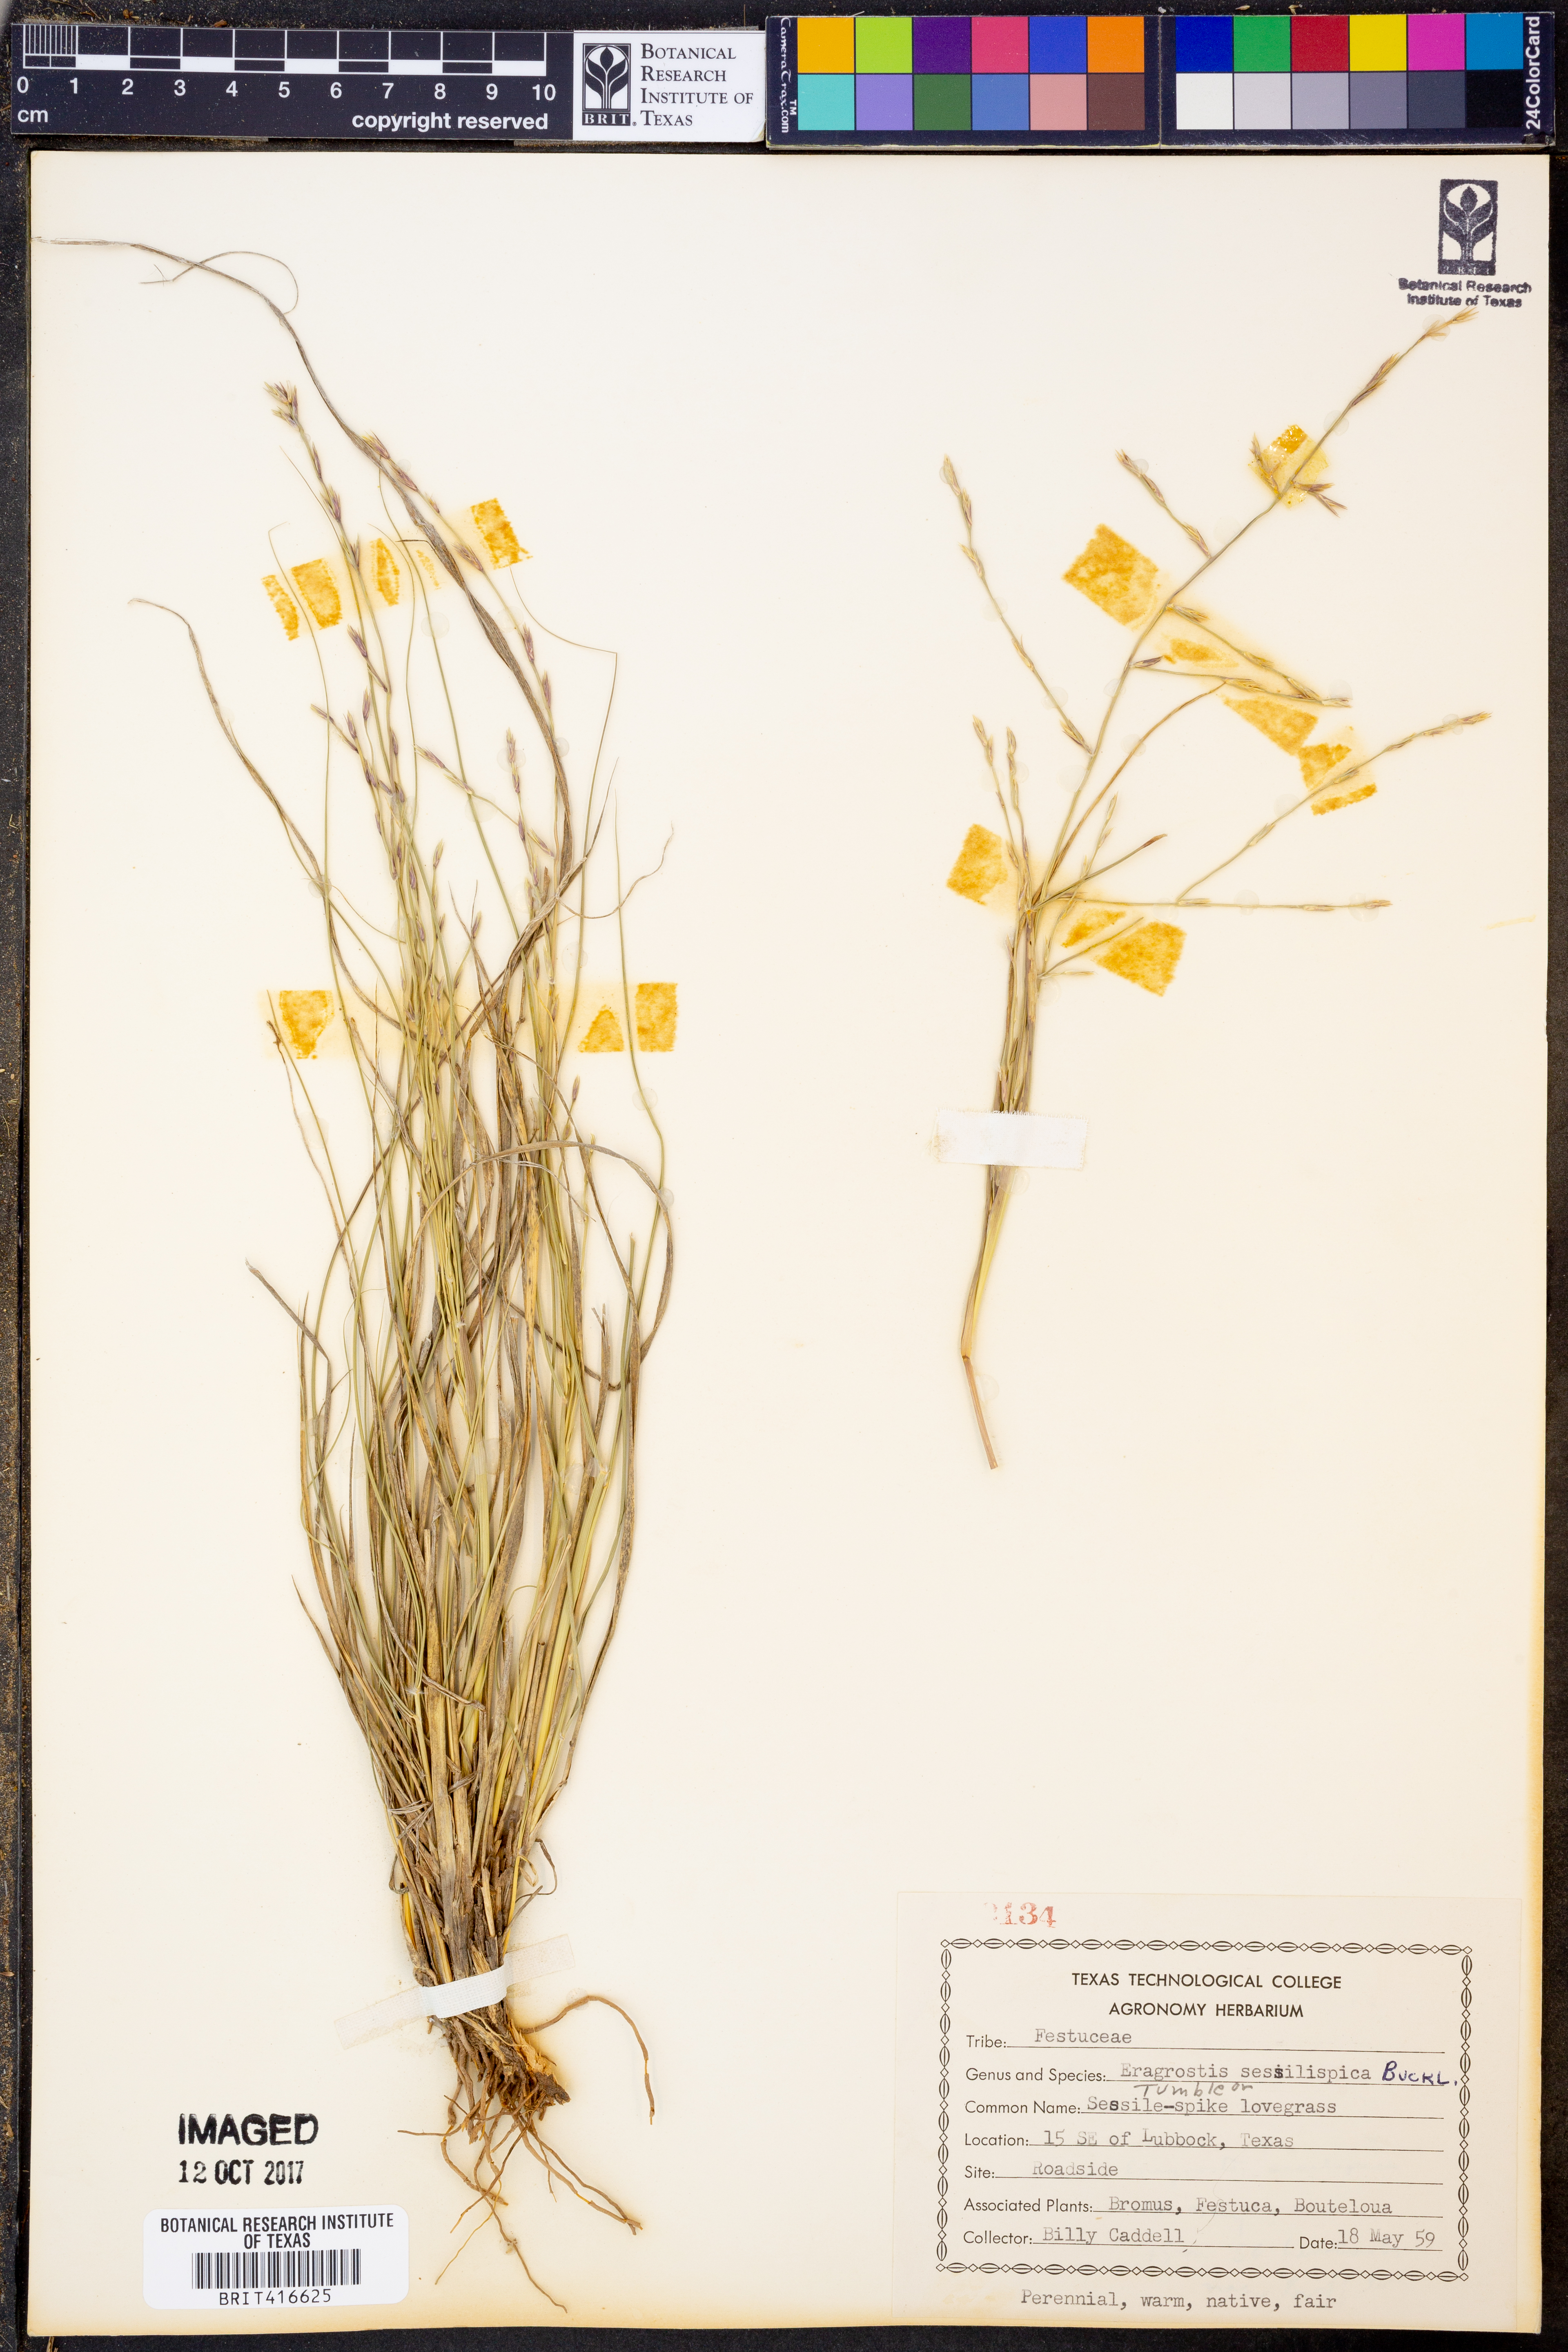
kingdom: Plantae
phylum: Tracheophyta
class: Liliopsida
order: Poales
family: Poaceae
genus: Eragrostis
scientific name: Eragrostis sessilispica
